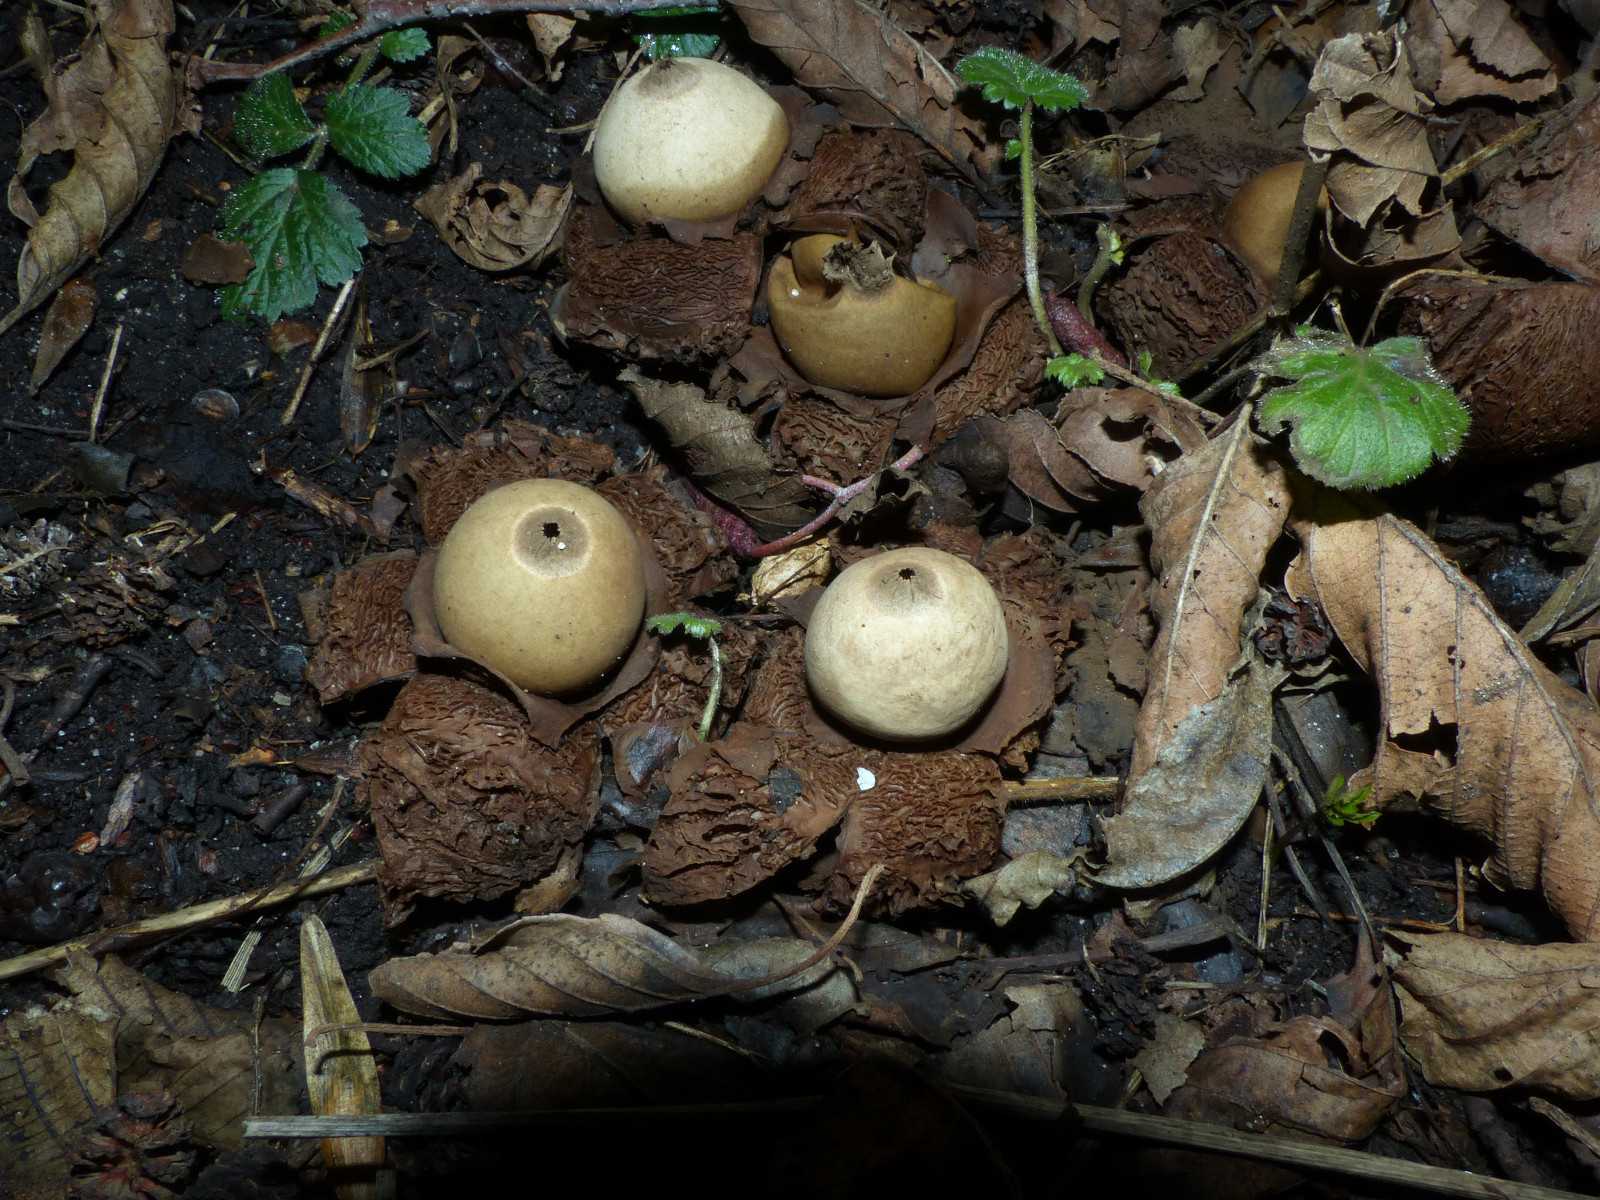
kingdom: Fungi
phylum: Basidiomycota
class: Agaricomycetes
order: Geastrales
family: Geastraceae
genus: Geastrum
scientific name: Geastrum michelianum
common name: kødet stjernebold
